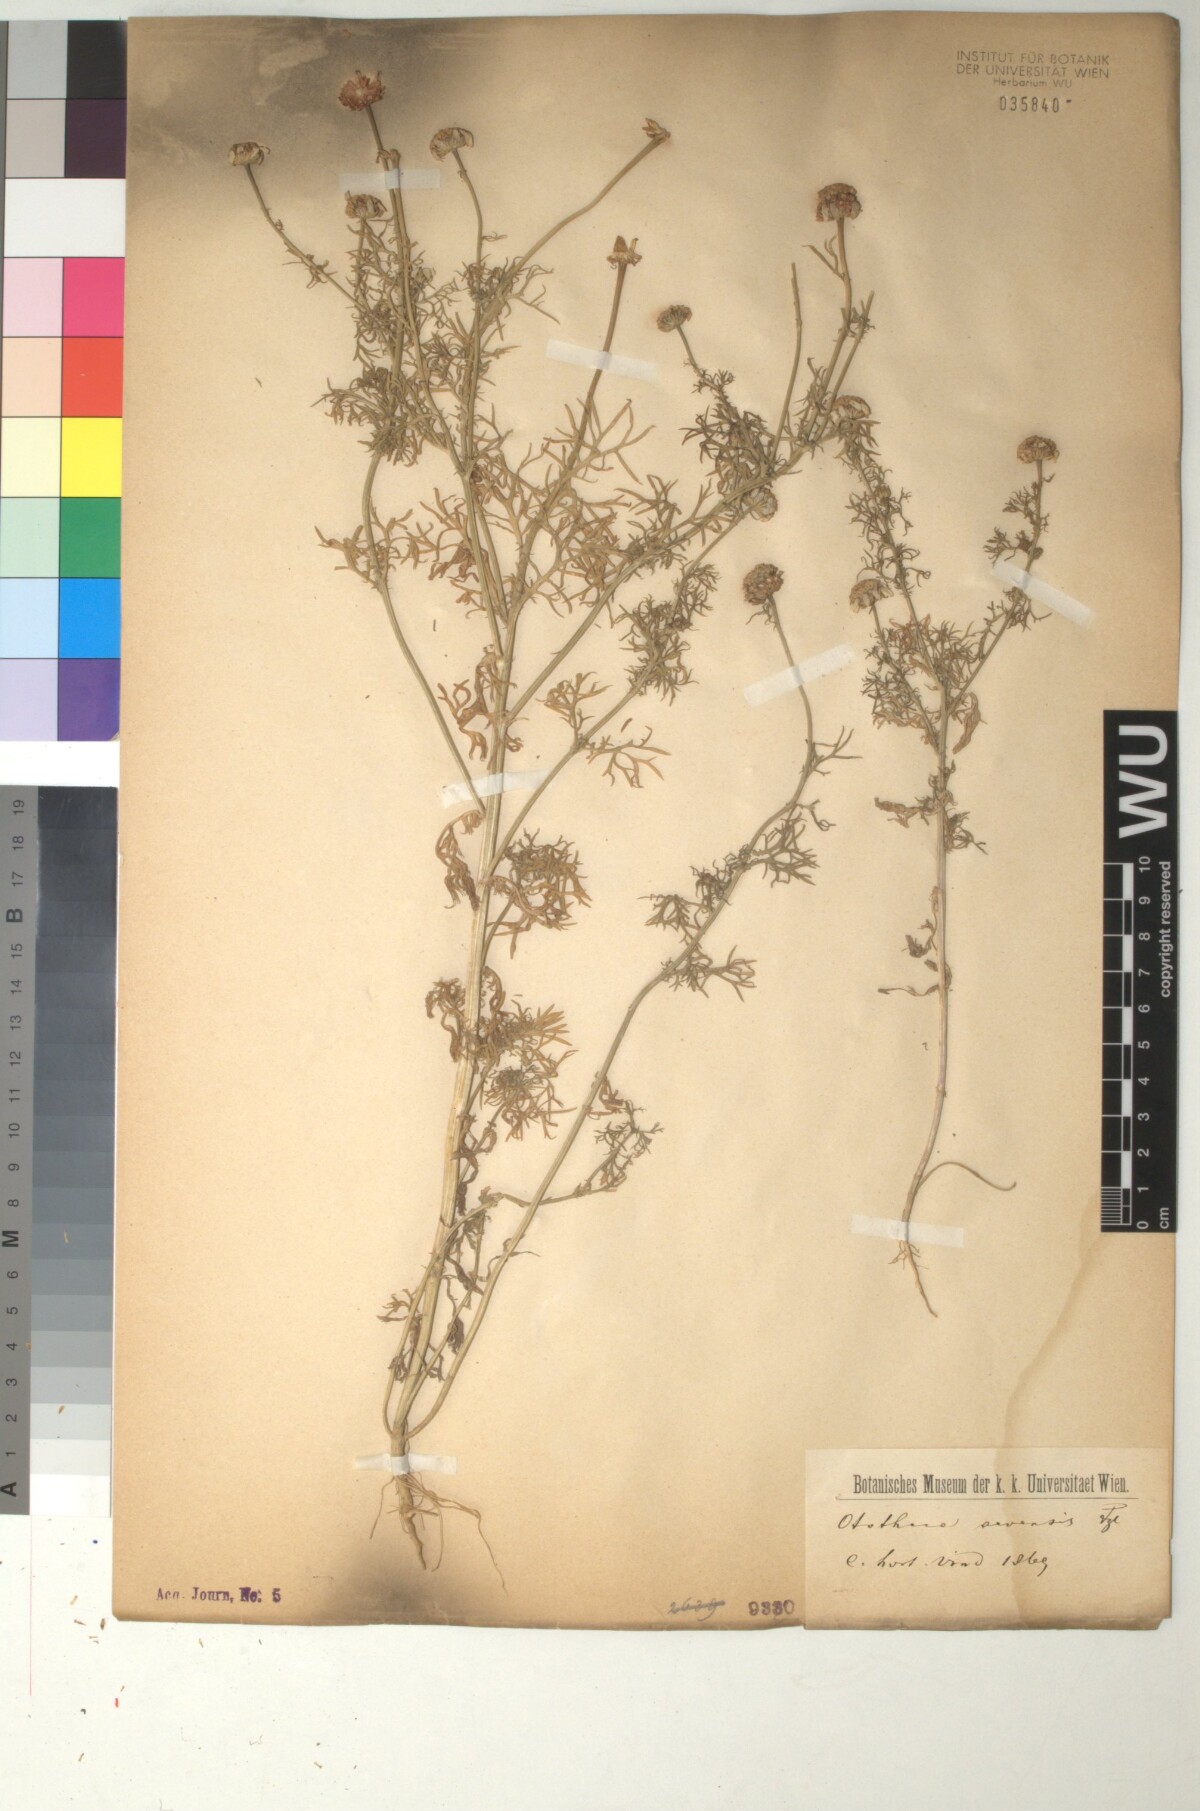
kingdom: Plantae
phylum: Tracheophyta
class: Magnoliopsida
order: Asterales
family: Asteraceae
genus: Anthemis
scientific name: Anthemis arvensis
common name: Corn chamomile
